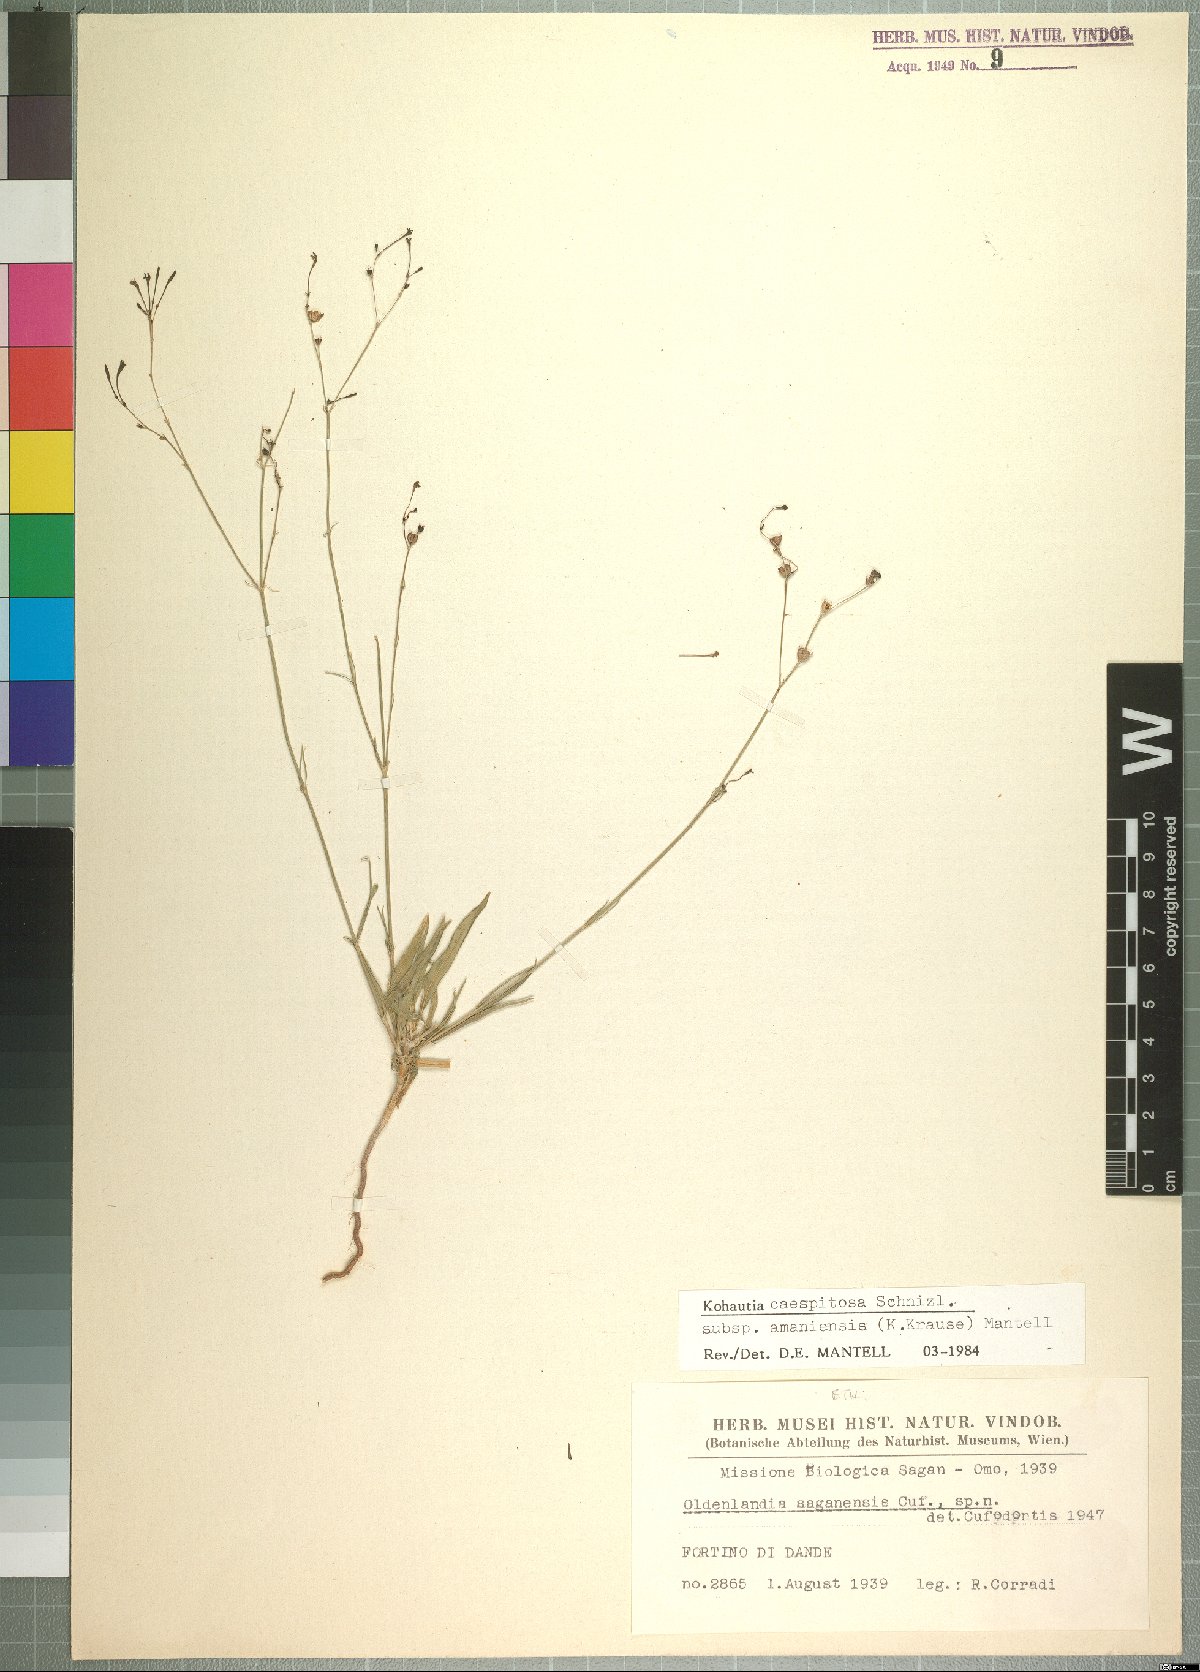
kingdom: Plantae
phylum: Tracheophyta
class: Magnoliopsida
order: Gentianales
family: Rubiaceae
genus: Kohautia
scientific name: Kohautia caespitosa
